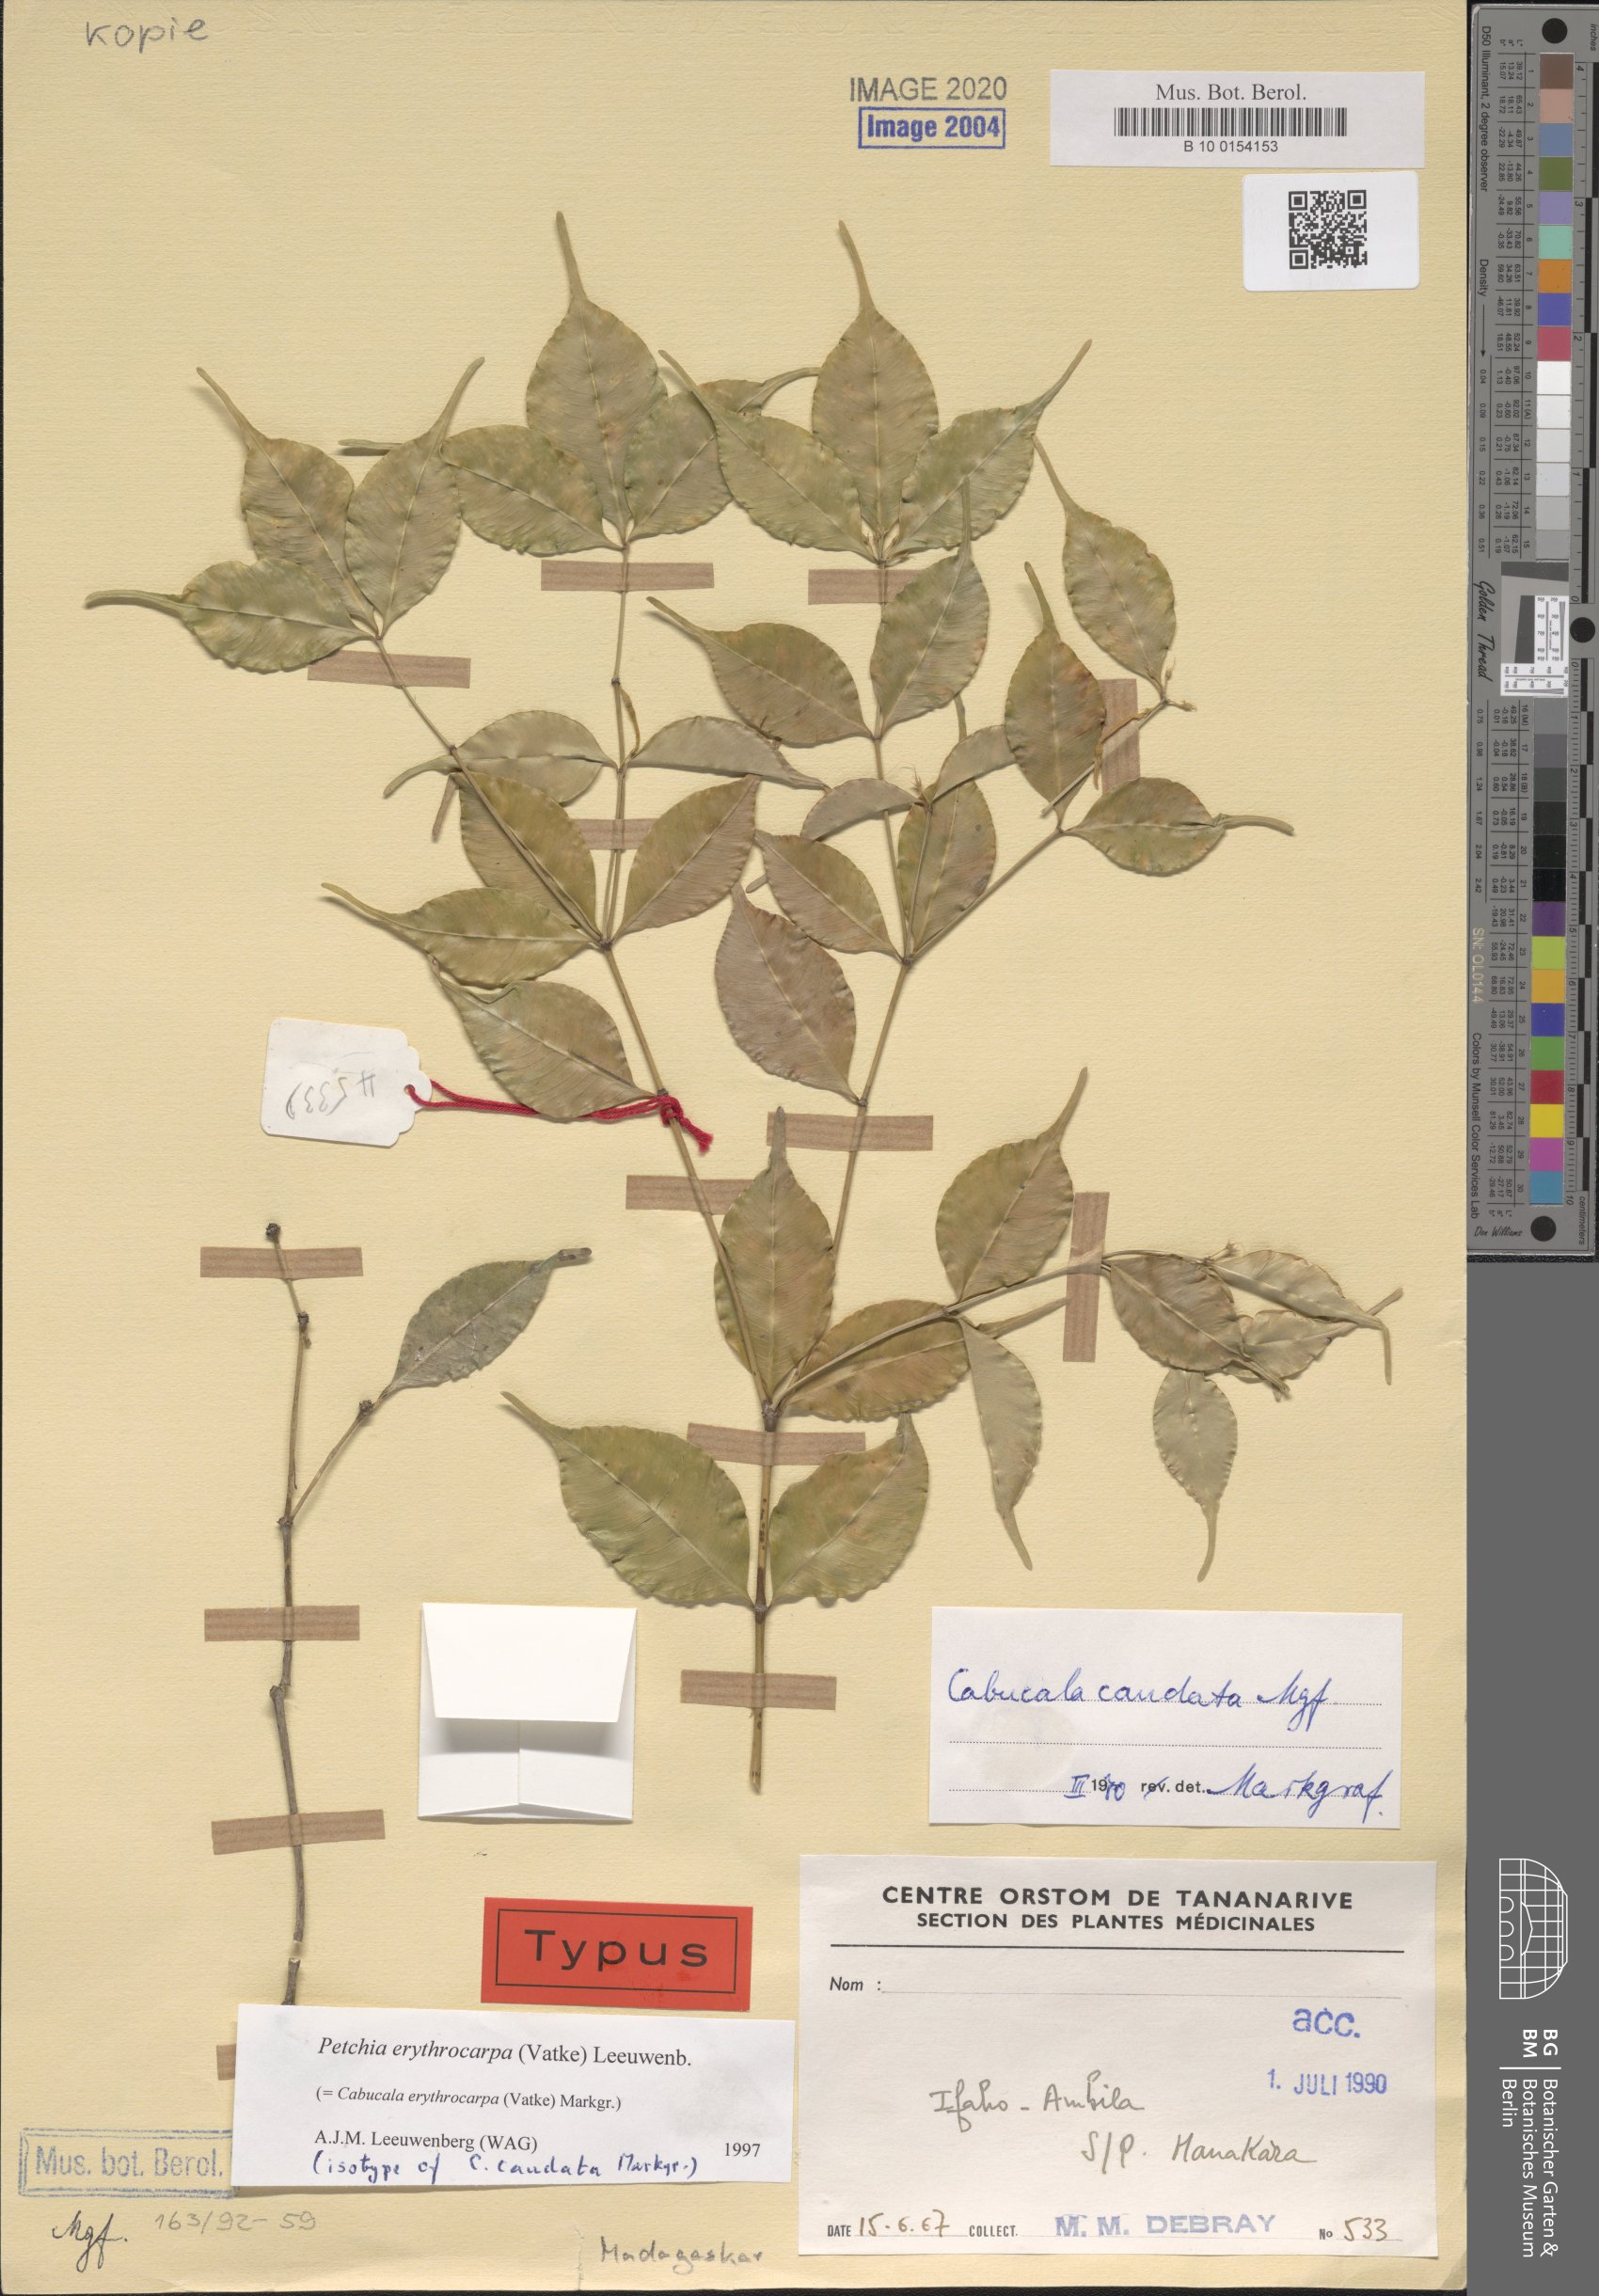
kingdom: Plantae
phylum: Tracheophyta
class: Magnoliopsida
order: Gentianales
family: Apocynaceae
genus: Petchia
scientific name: Petchia erythrocarpa
